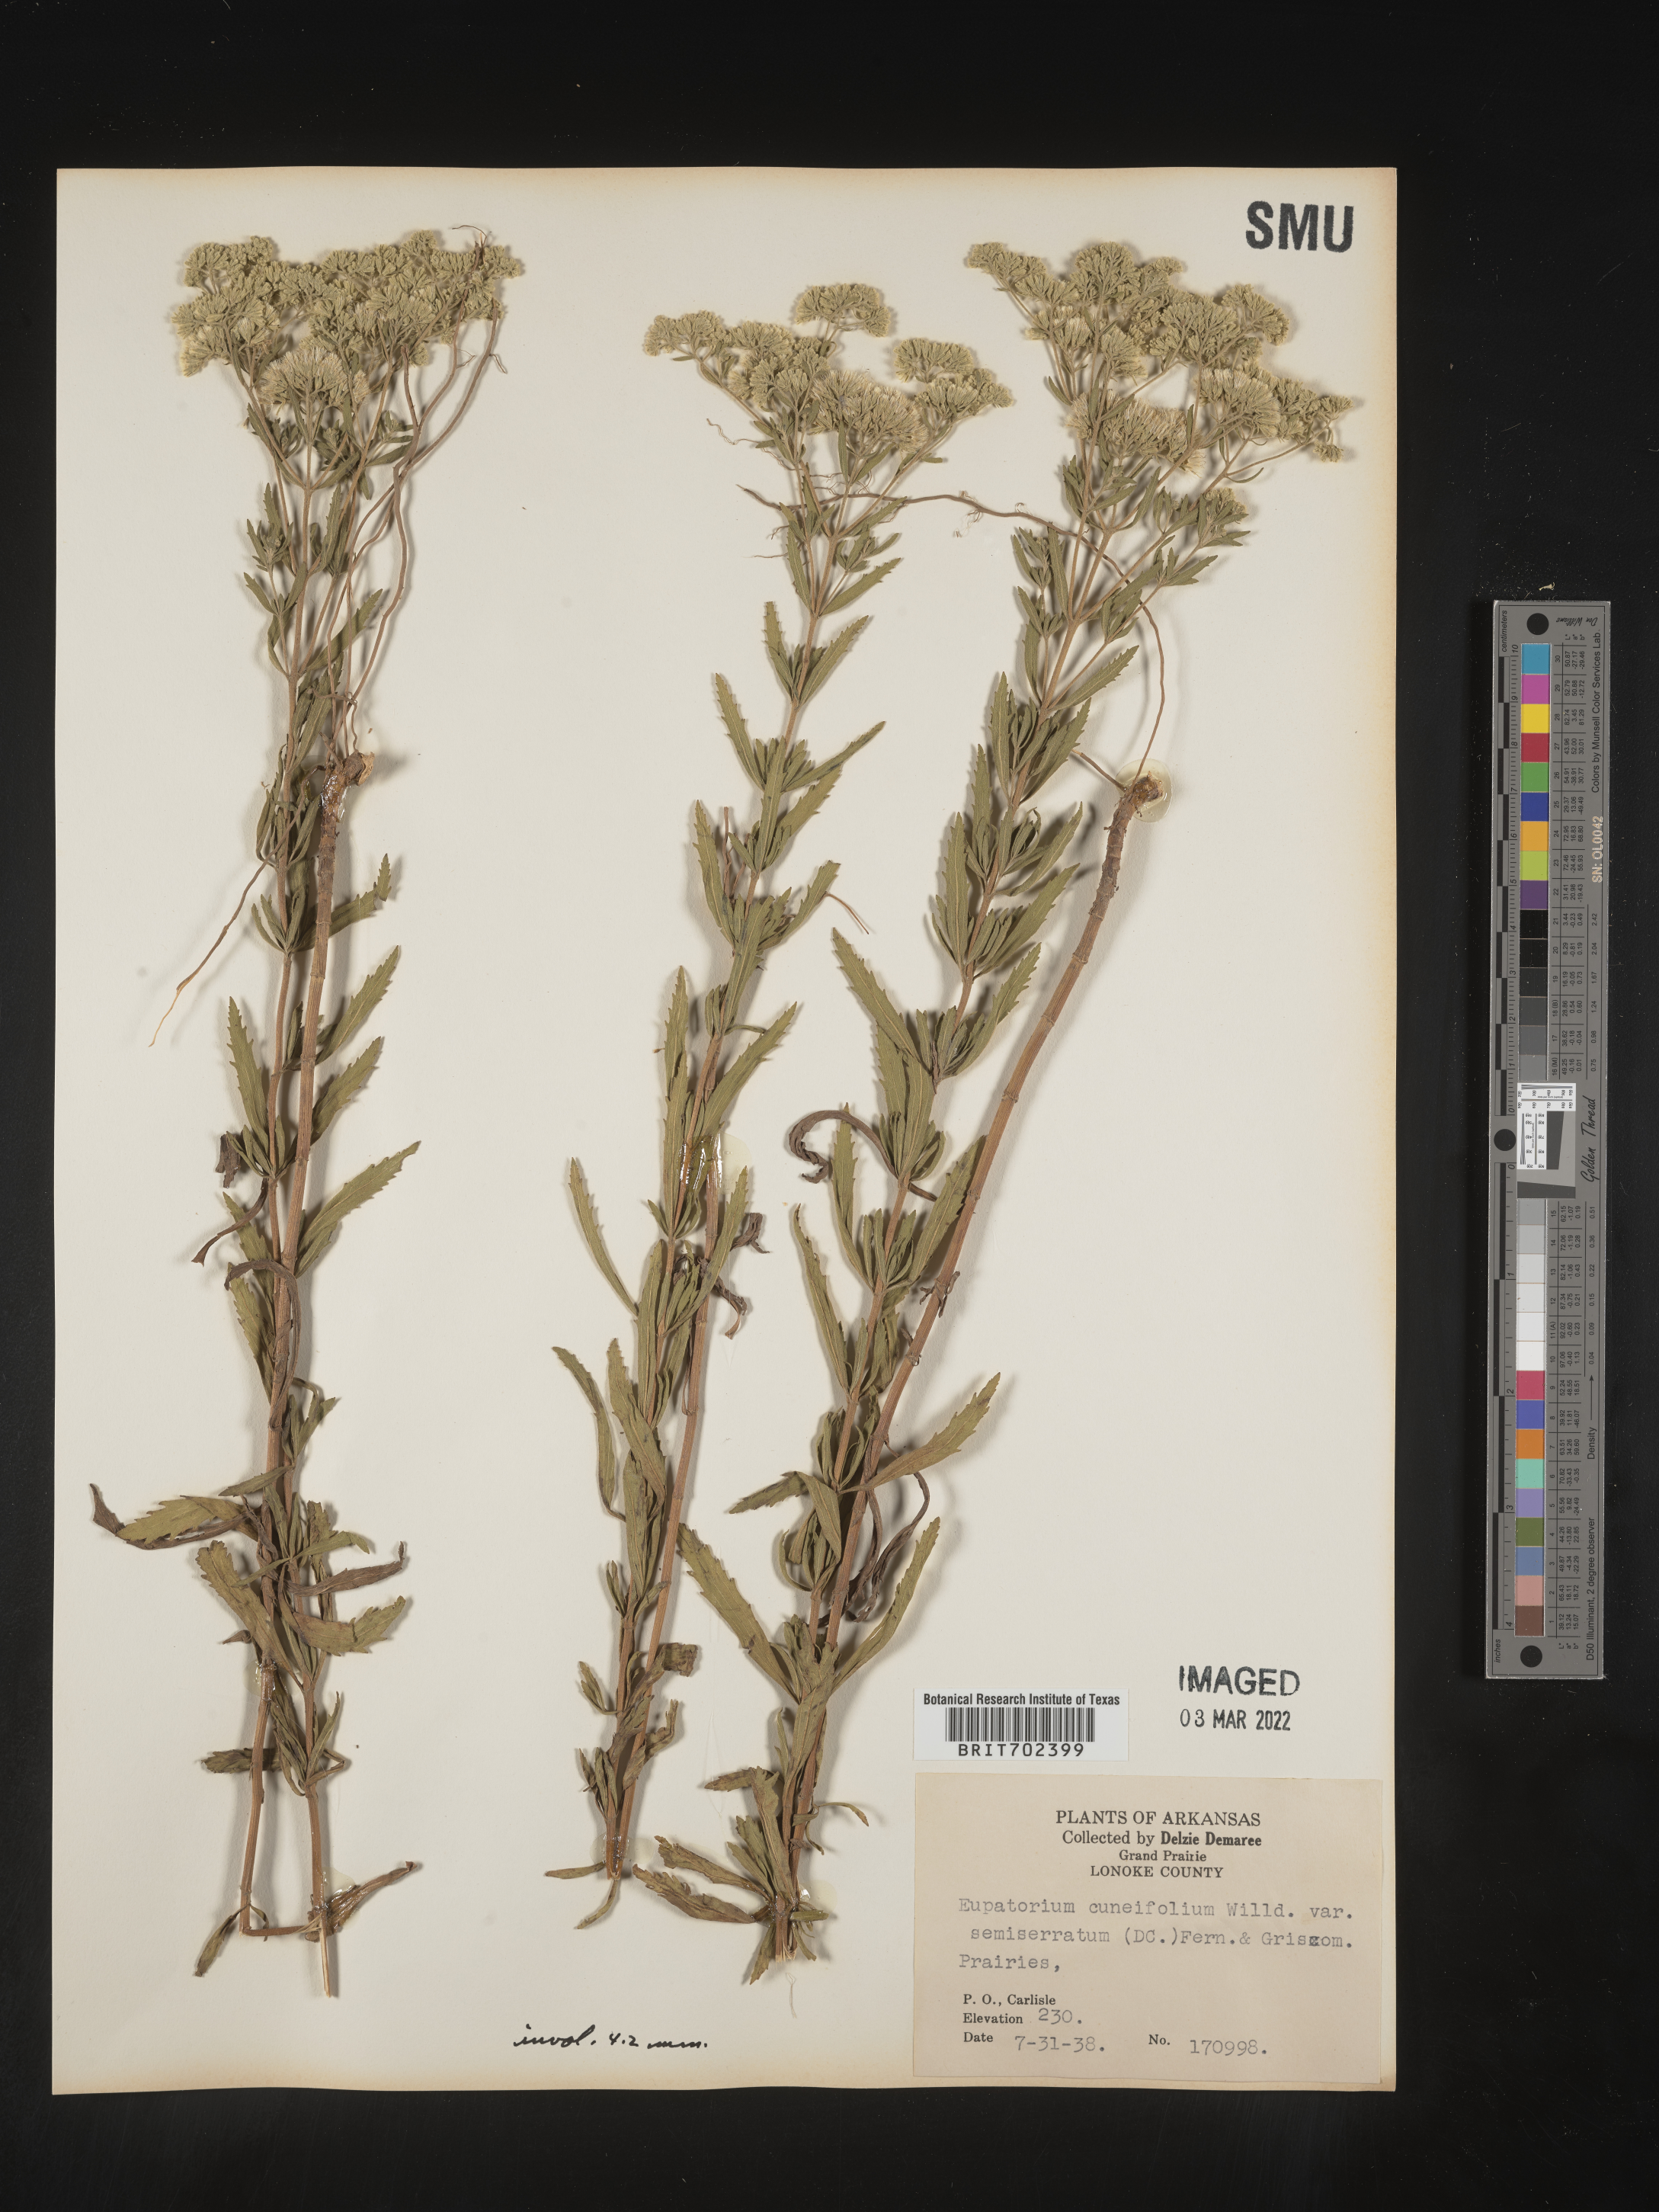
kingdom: Plantae
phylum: Tracheophyta
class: Magnoliopsida
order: Asterales
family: Asteraceae
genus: Eupatorium
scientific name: Eupatorium semiserratum
